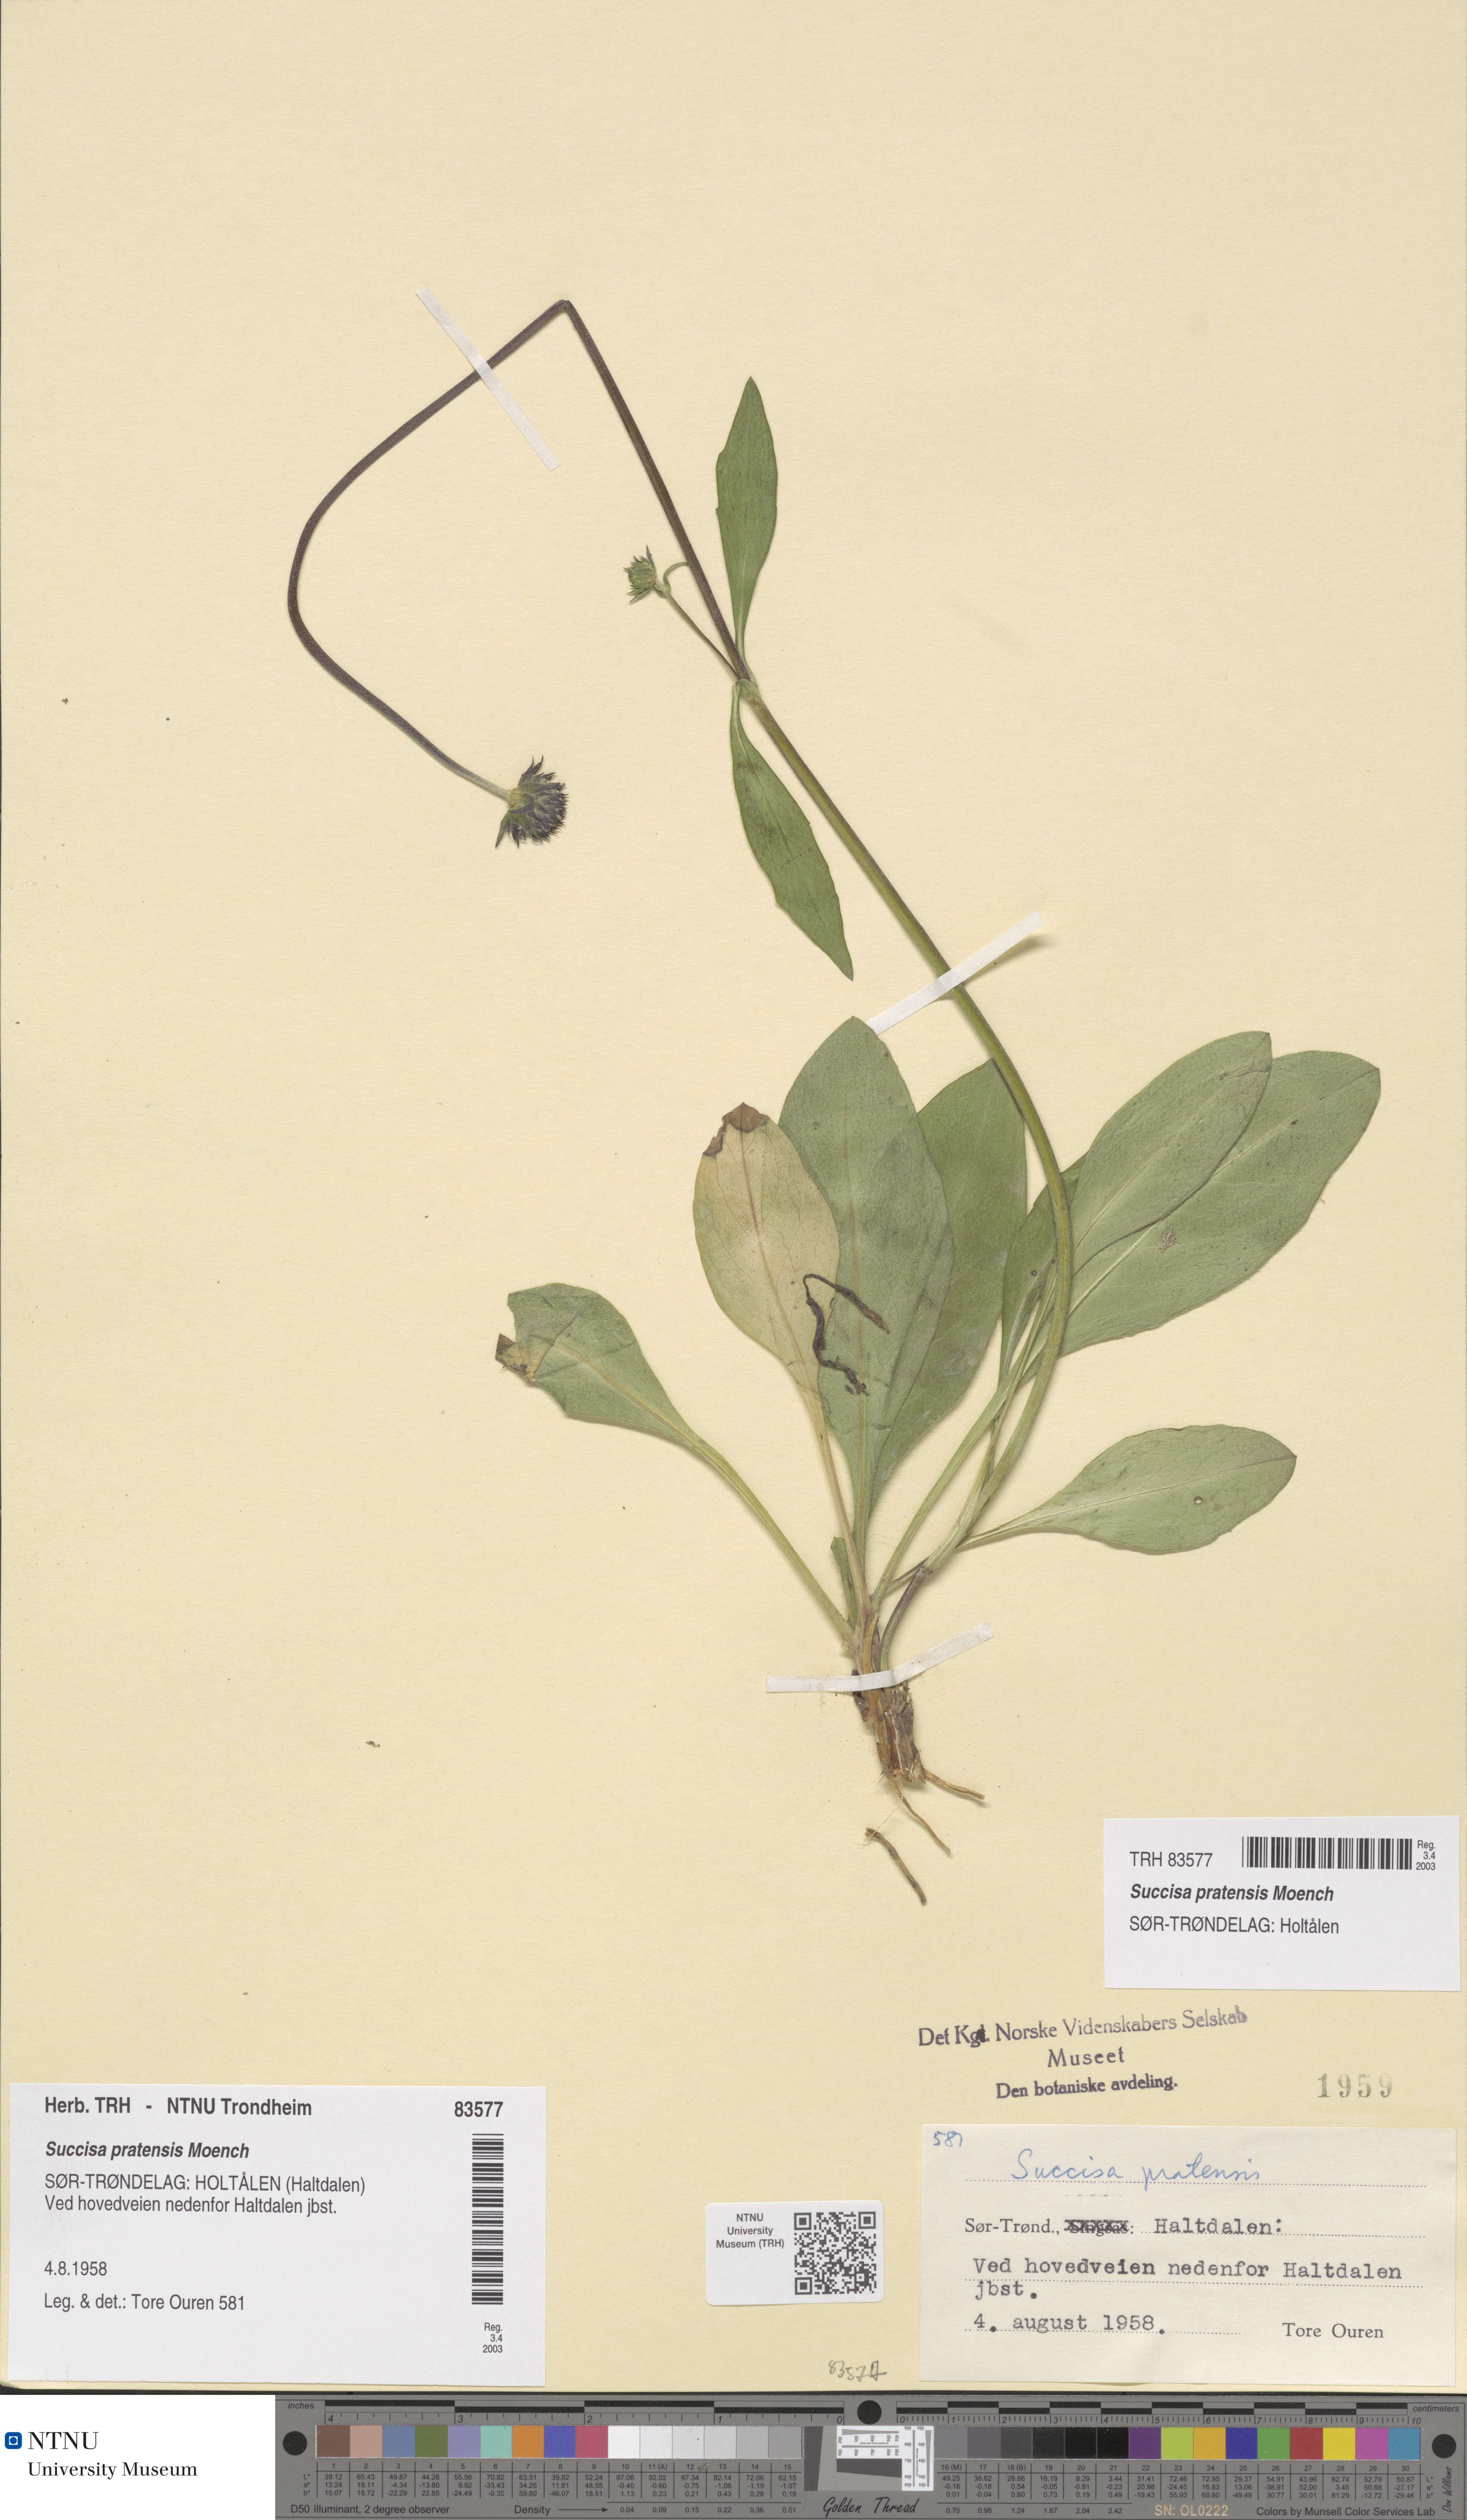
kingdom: Plantae
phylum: Tracheophyta
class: Magnoliopsida
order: Dipsacales
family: Caprifoliaceae
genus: Succisa
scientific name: Succisa pratensis
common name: Devil's-bit
